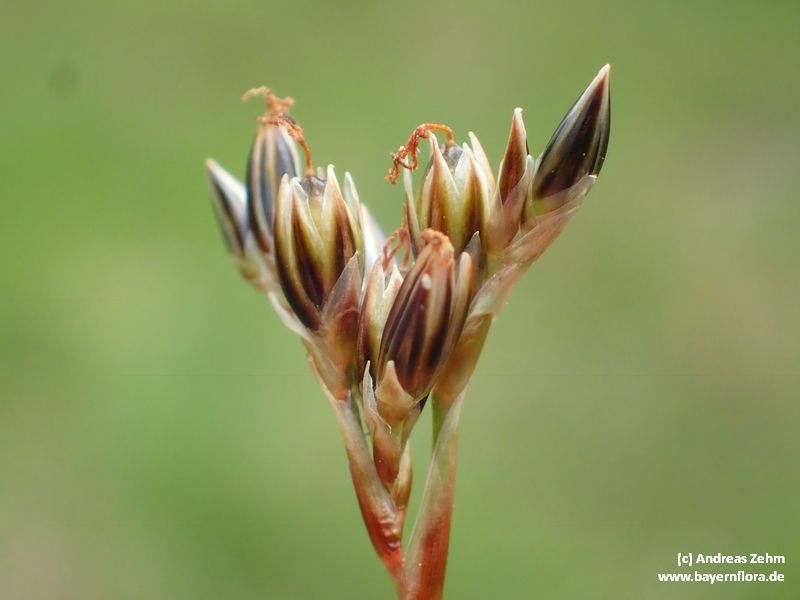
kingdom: Plantae
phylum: Tracheophyta
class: Liliopsida
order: Poales
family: Juncaceae
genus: Juncus
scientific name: Juncus squarrosus
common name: Heath rush
